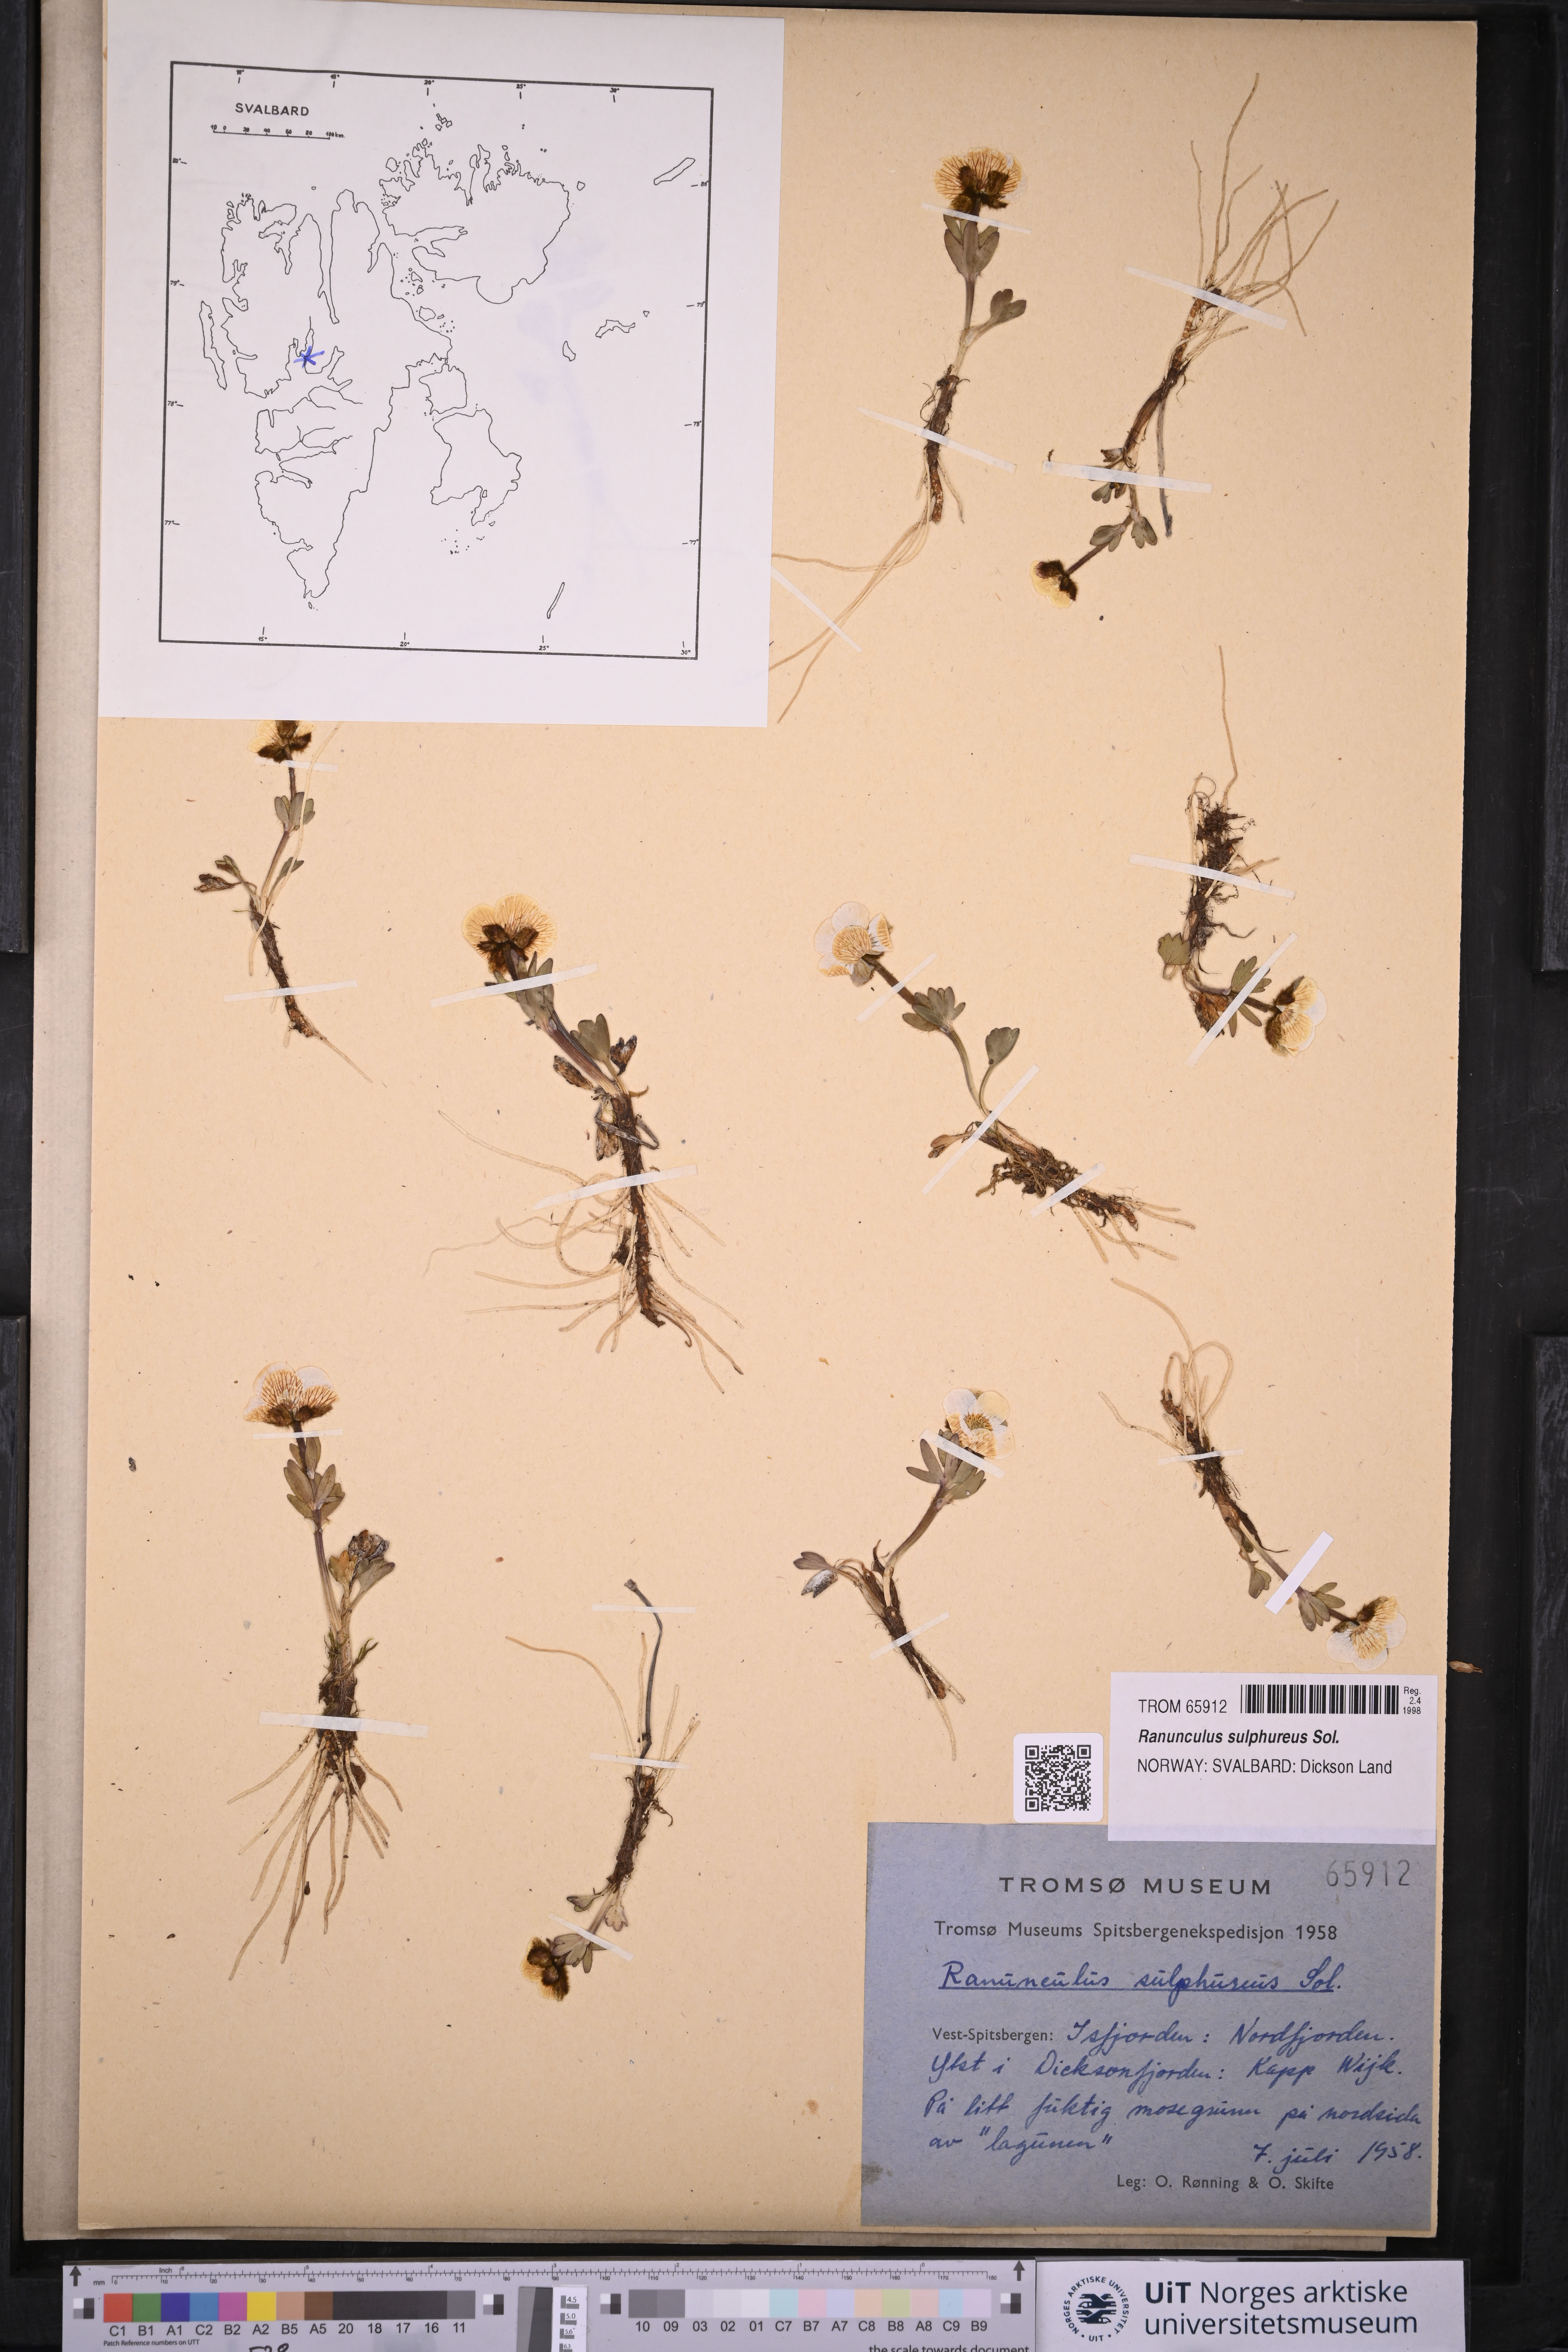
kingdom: Plantae
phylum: Tracheophyta
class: Magnoliopsida
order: Ranunculales
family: Ranunculaceae
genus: Ranunculus
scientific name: Ranunculus sulphureus
